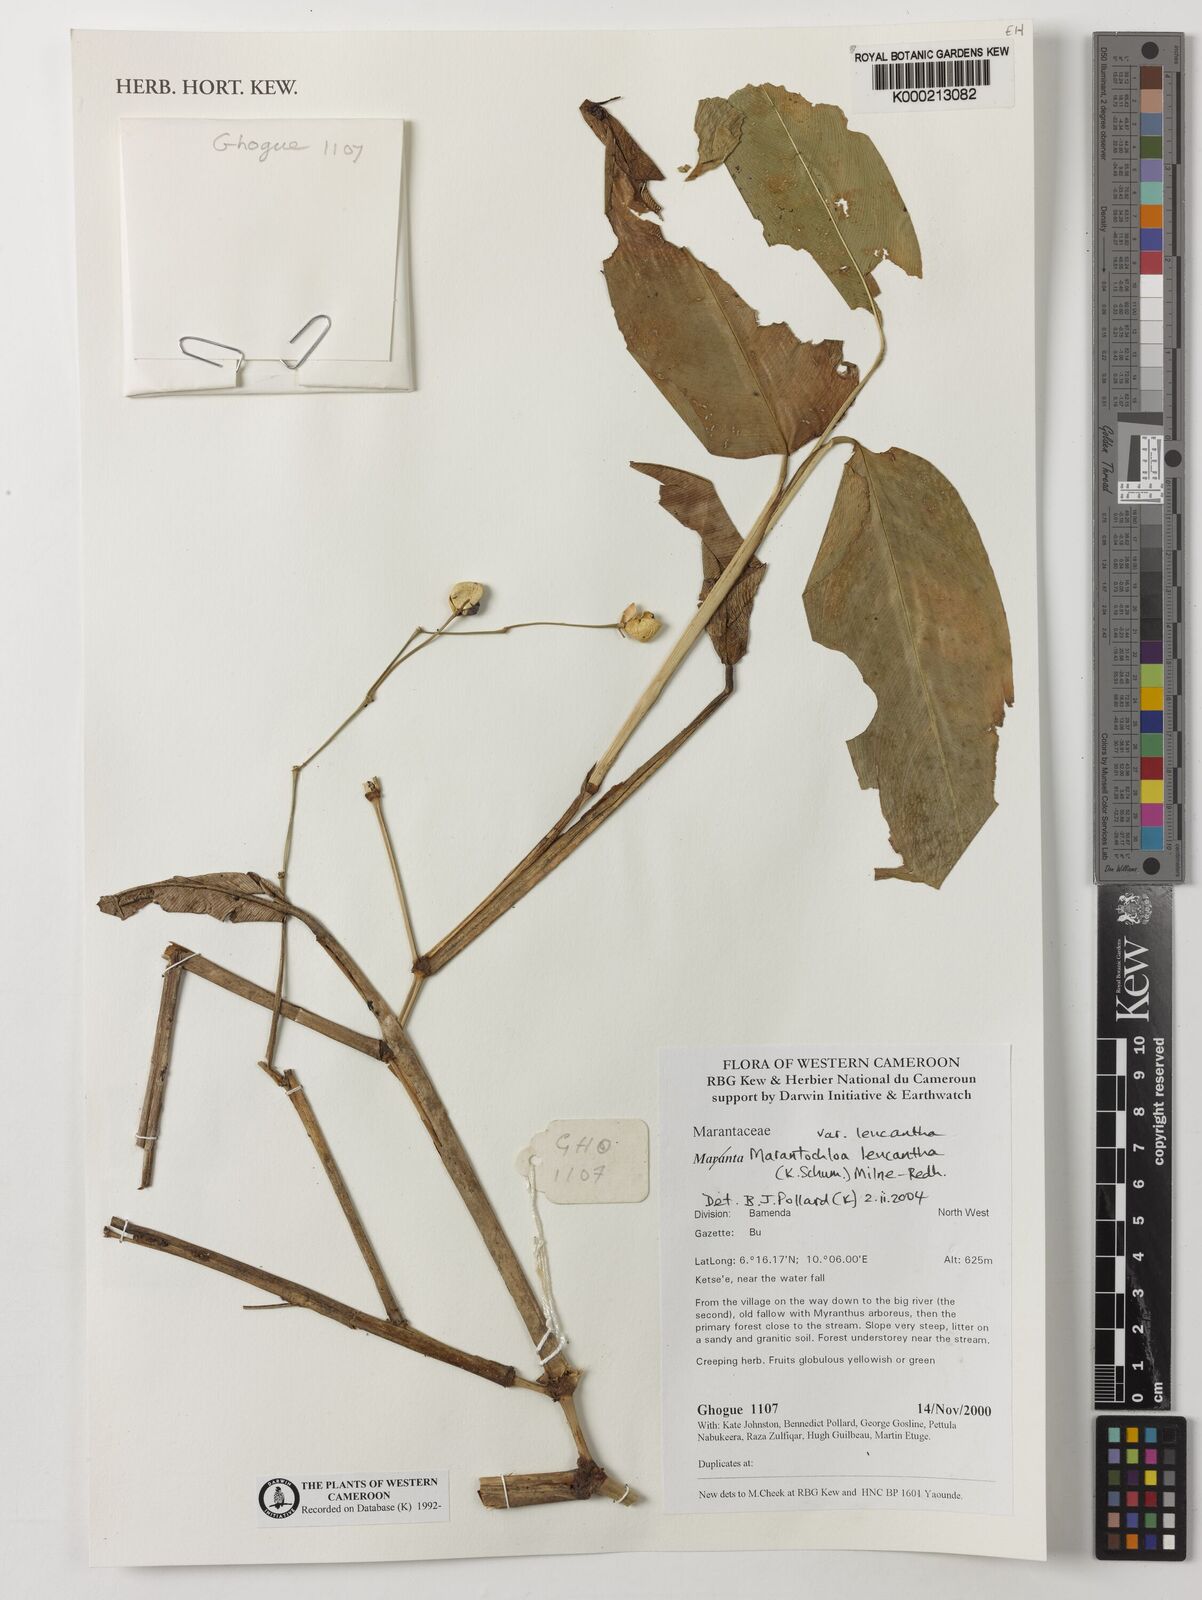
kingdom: Plantae
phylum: Tracheophyta
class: Liliopsida
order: Zingiberales
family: Marantaceae
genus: Marantochloa
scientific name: Marantochloa leucantha
